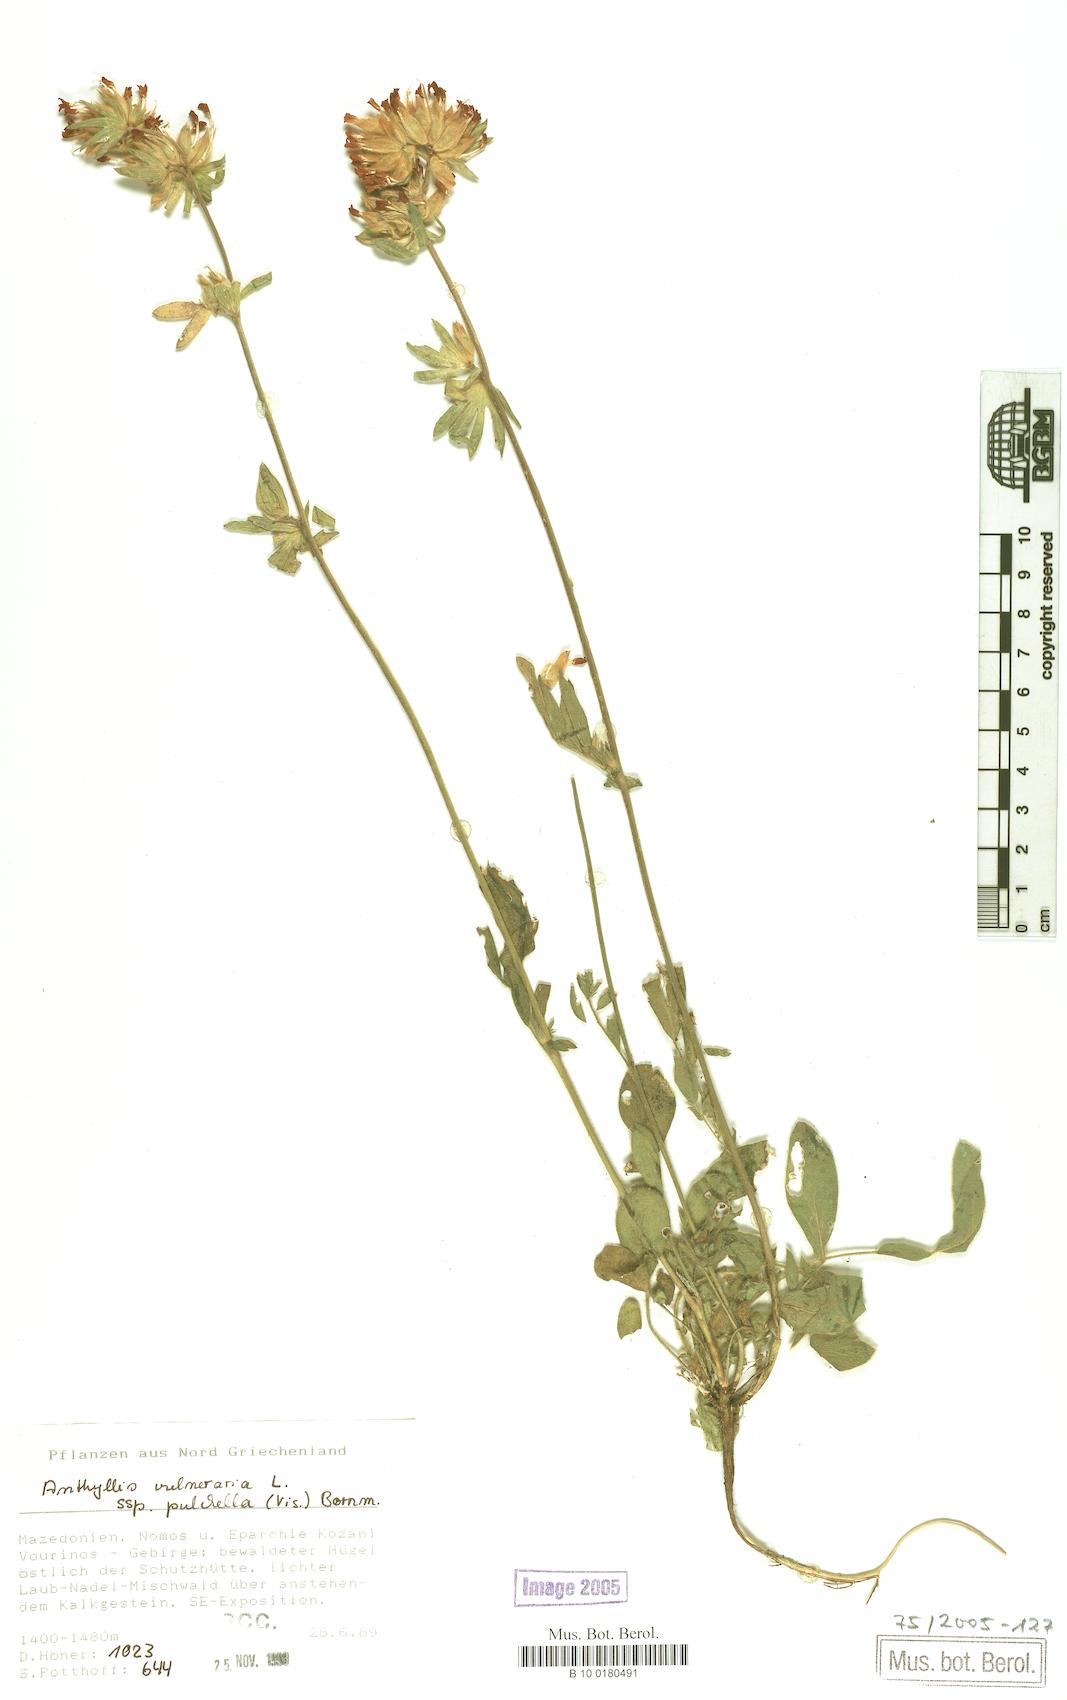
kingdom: Plantae
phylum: Tracheophyta
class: Magnoliopsida
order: Fabales
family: Fabaceae
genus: Anthyllis
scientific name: Anthyllis vulneraria
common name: Kidney vetch
